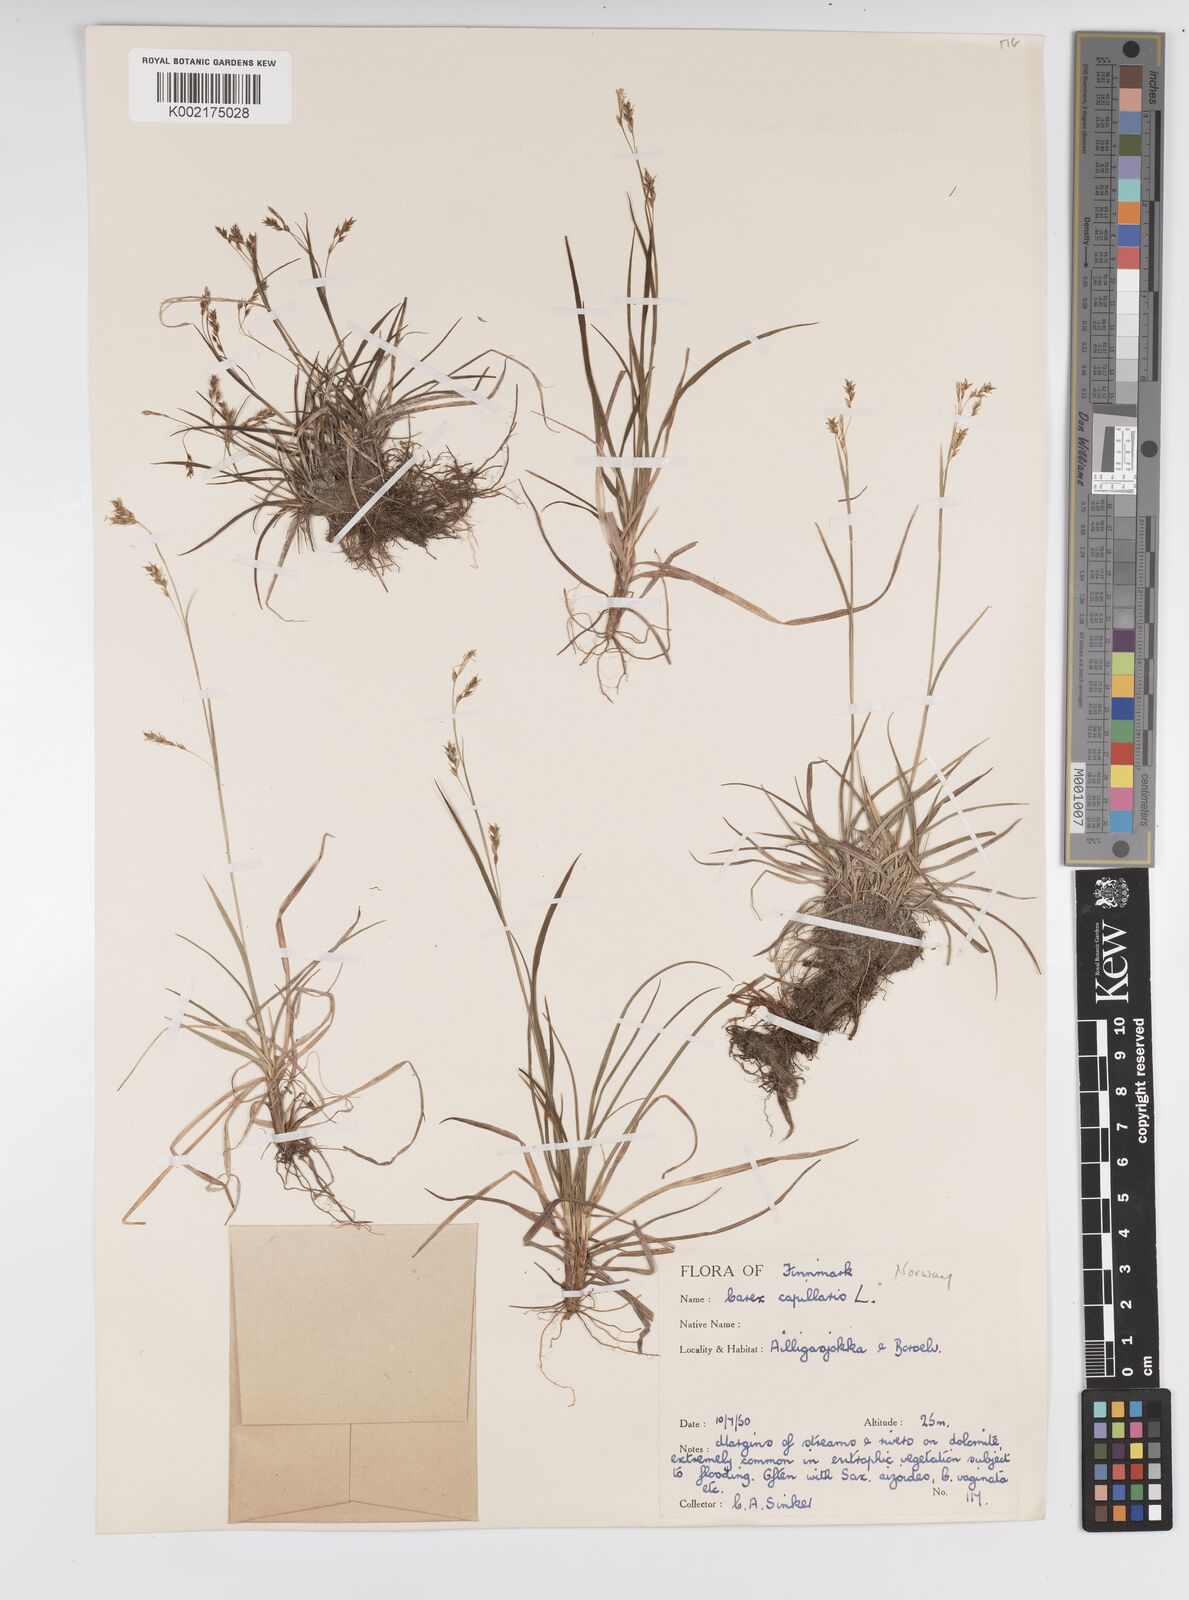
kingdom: Plantae
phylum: Tracheophyta
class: Liliopsida
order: Poales
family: Cyperaceae
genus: Carex
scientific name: Carex capillaris
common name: Hair sedge
